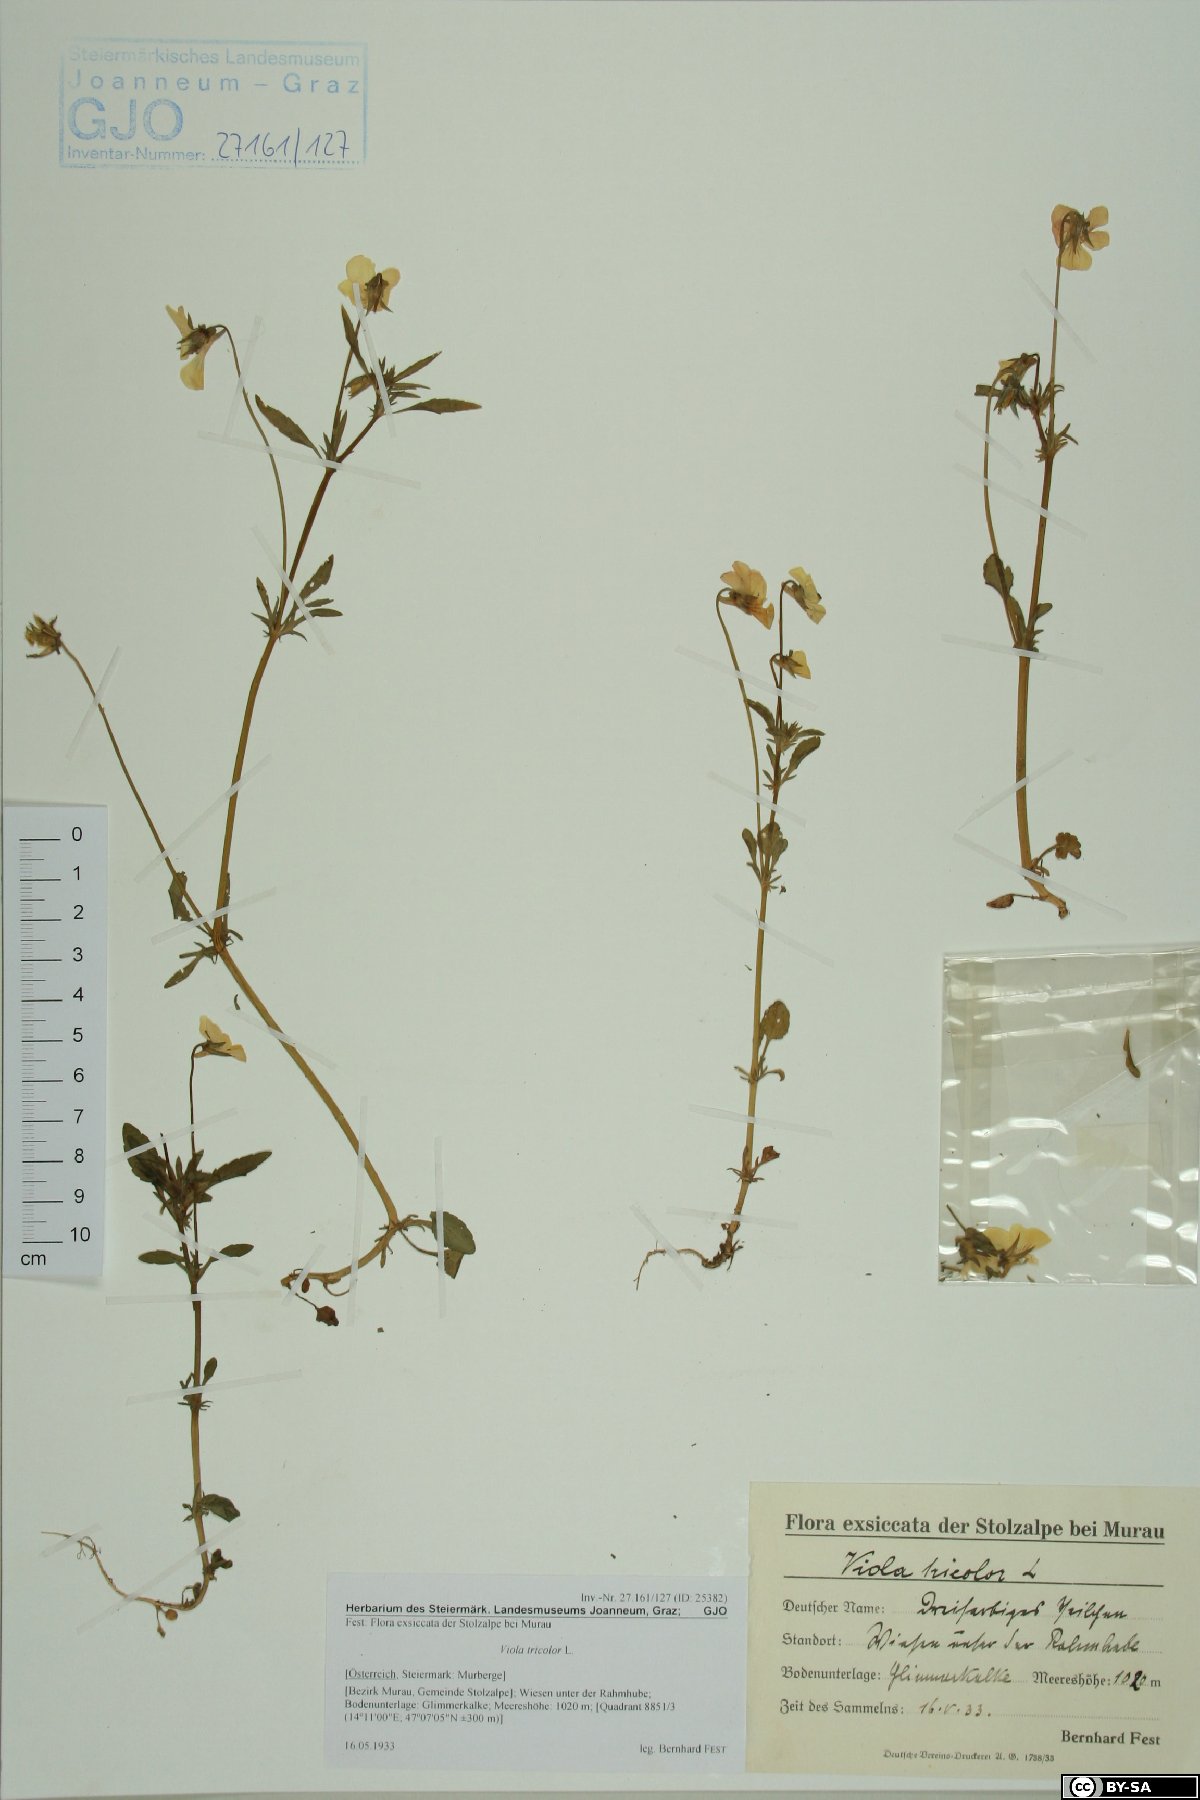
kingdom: Plantae
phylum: Tracheophyta
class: Magnoliopsida
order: Malpighiales
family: Violaceae
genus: Viola
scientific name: Viola tricolor
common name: Pansy
